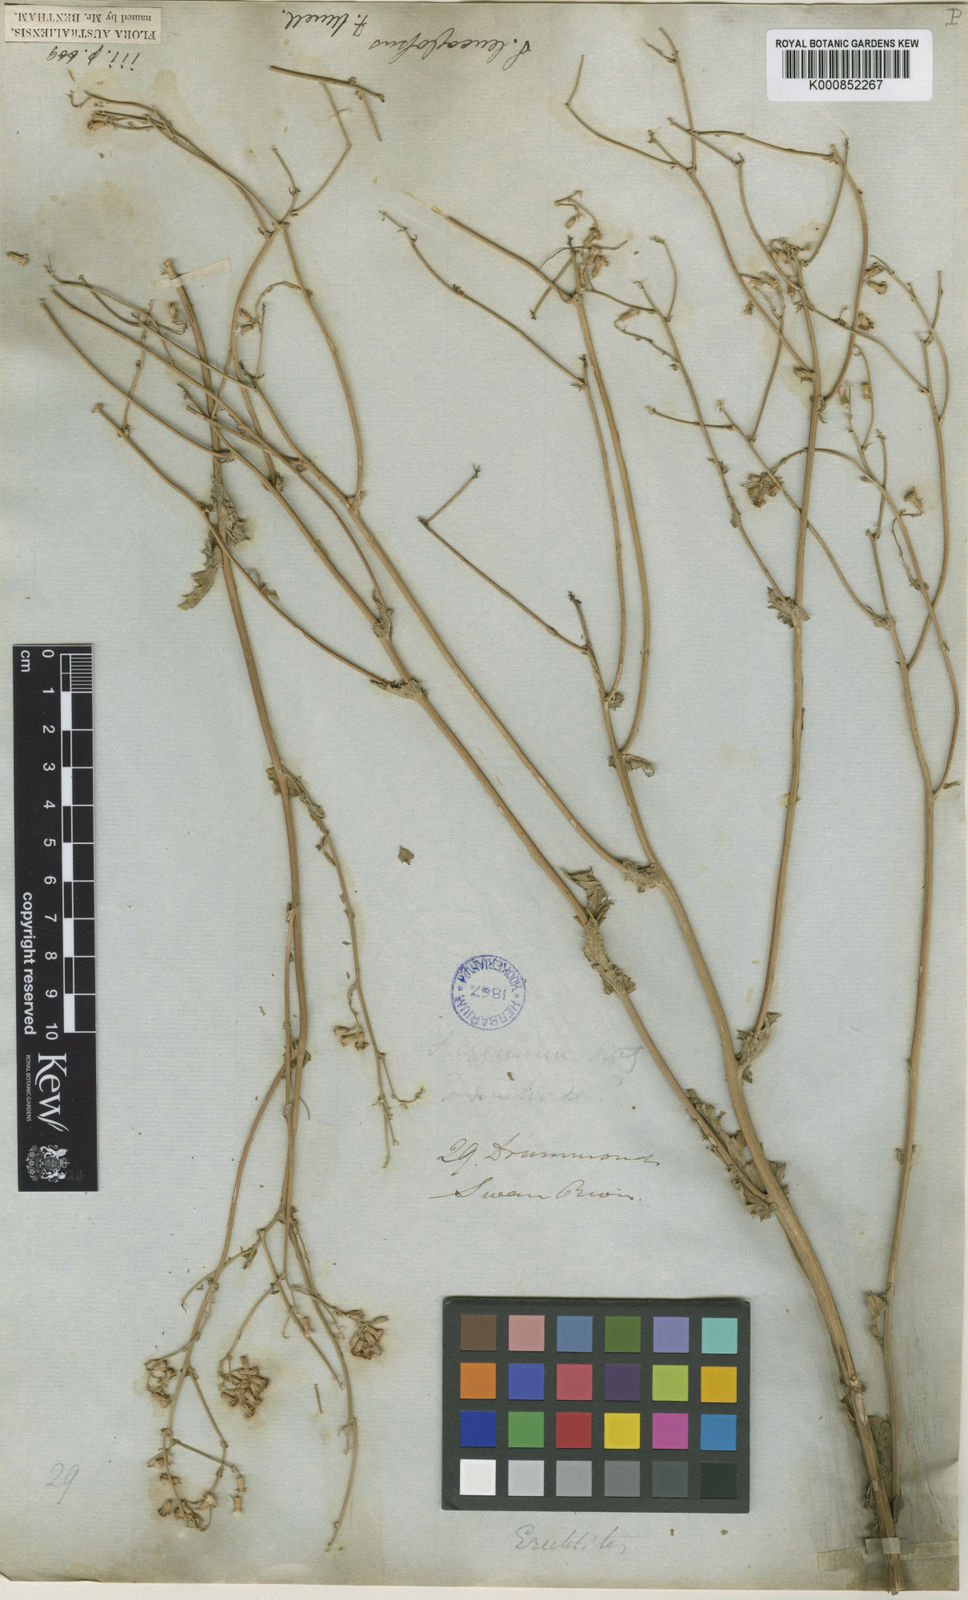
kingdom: Plantae
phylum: Tracheophyta
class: Magnoliopsida
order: Asterales
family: Asteraceae
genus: Senecio
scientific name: Senecio leucoglossus
